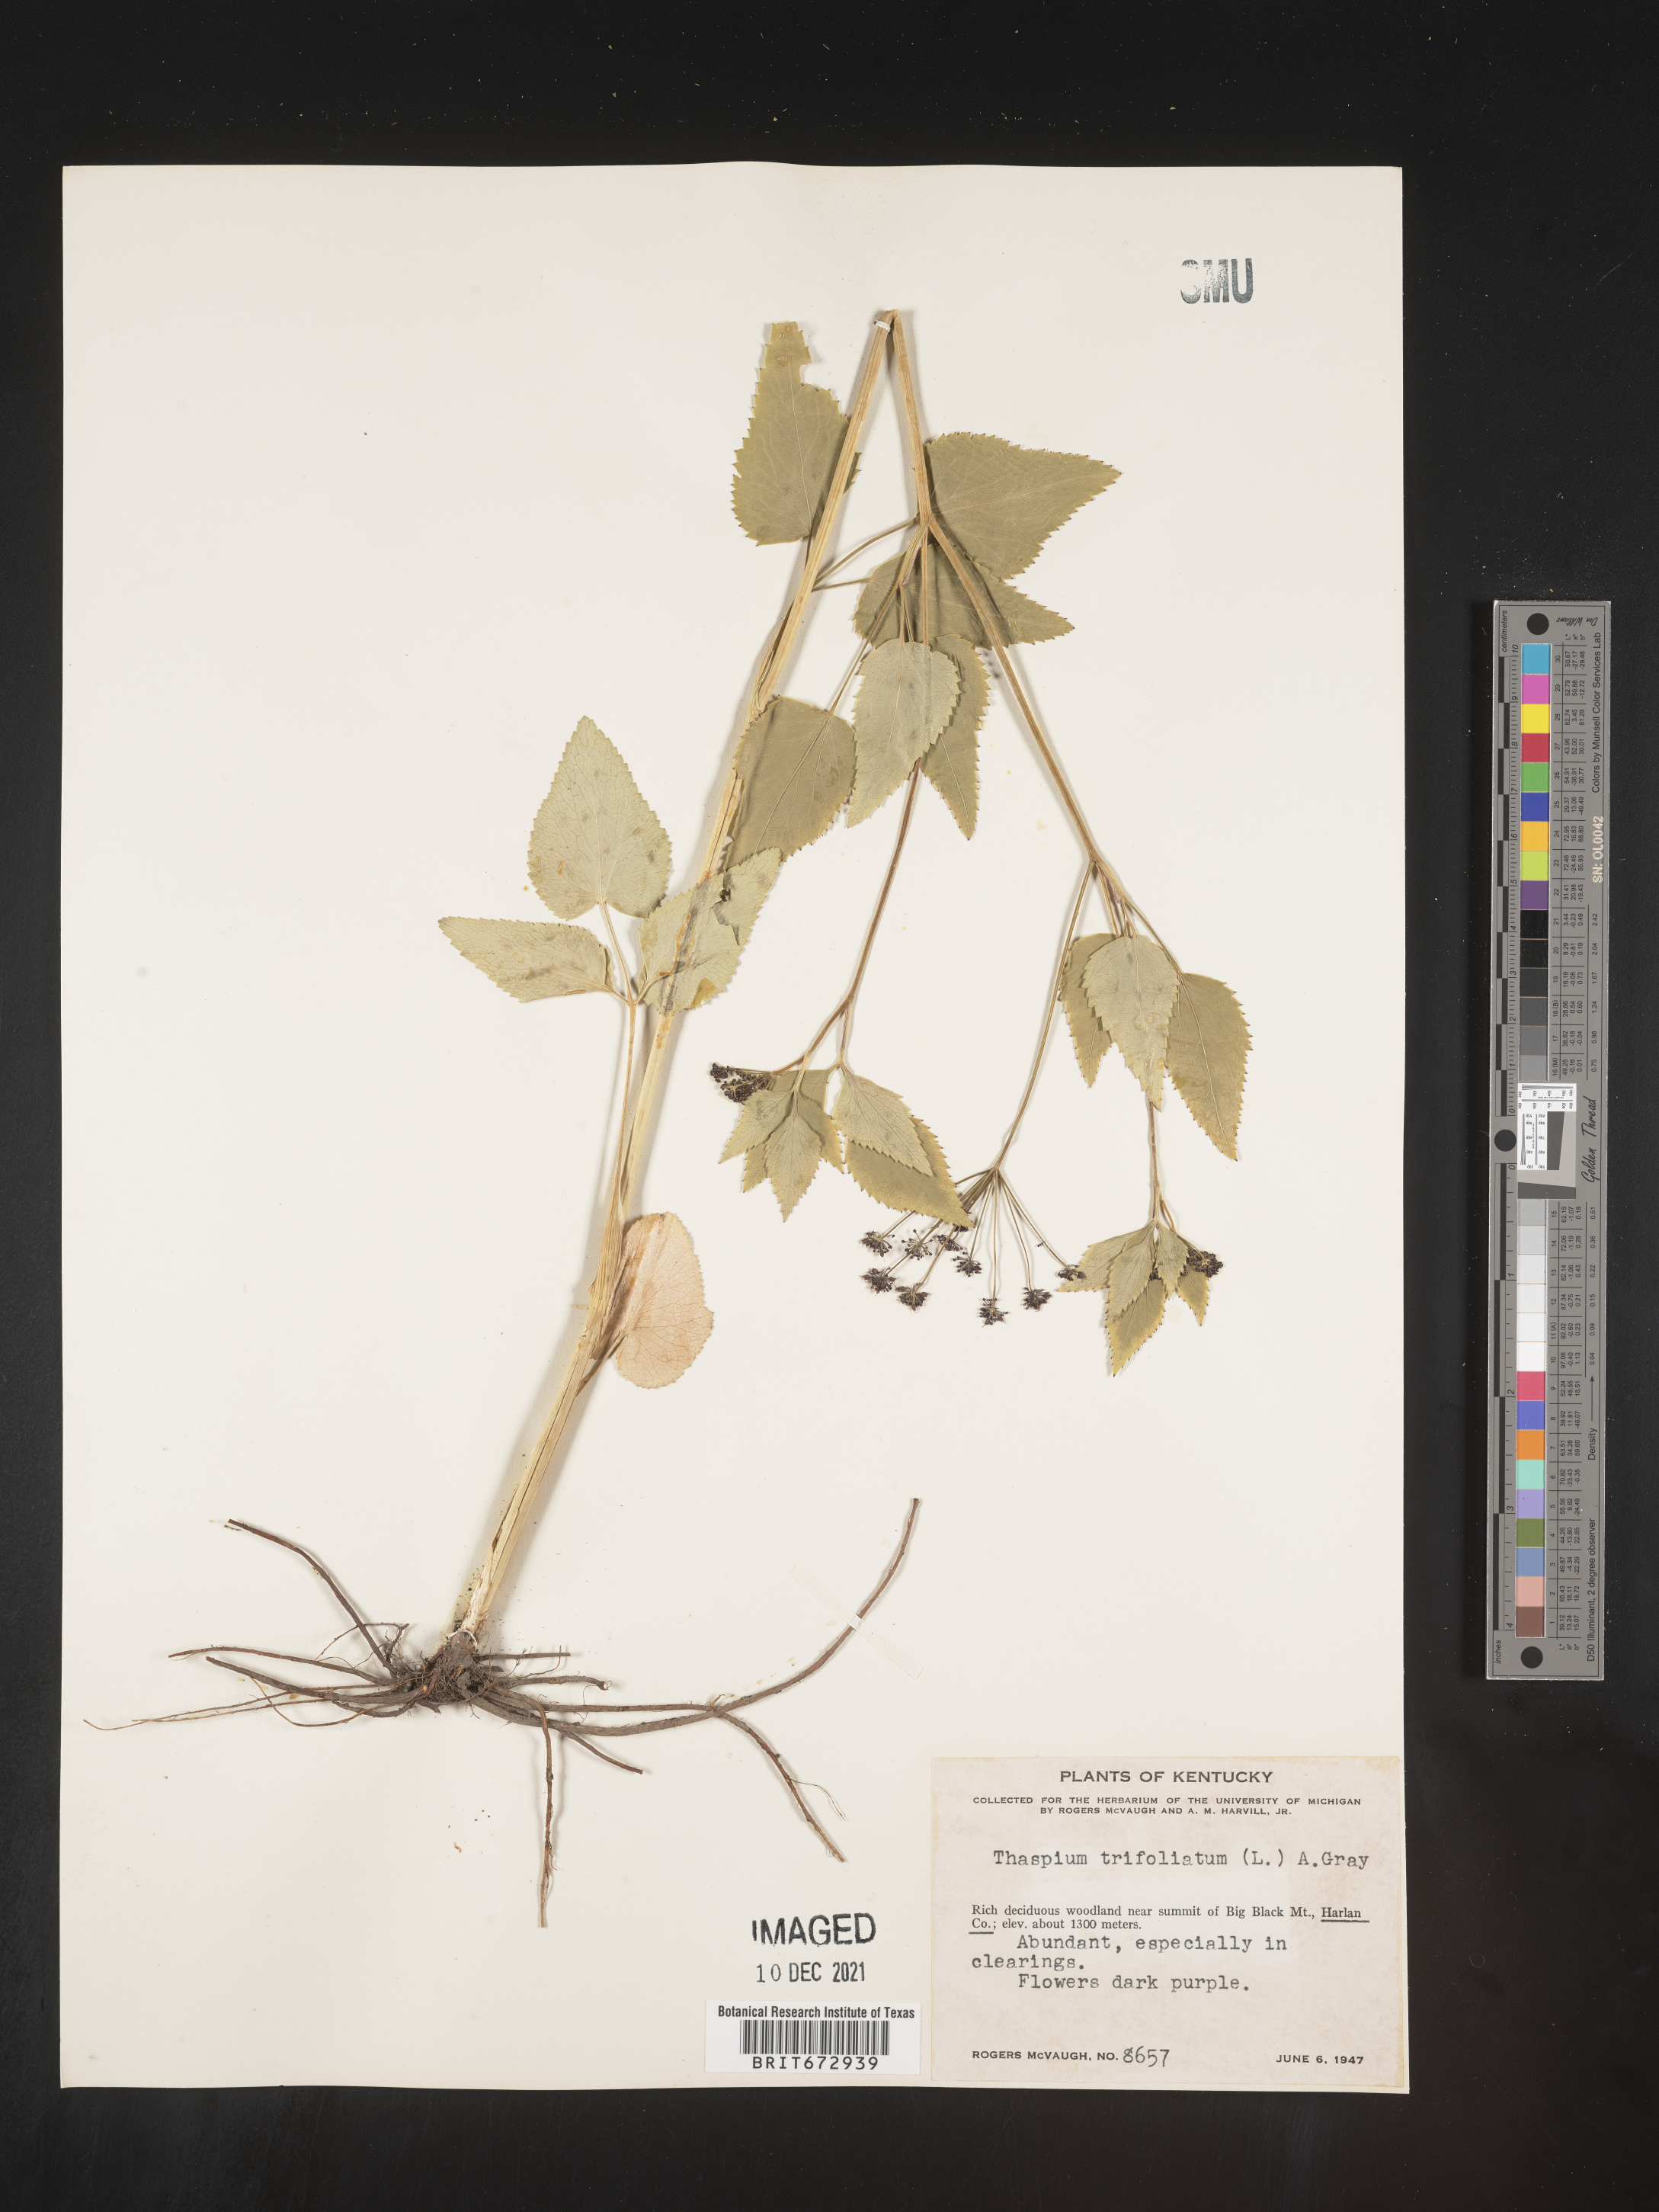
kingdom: Plantae
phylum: Tracheophyta
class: Magnoliopsida
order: Apiales
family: Apiaceae
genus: Thaspium
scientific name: Thaspium
